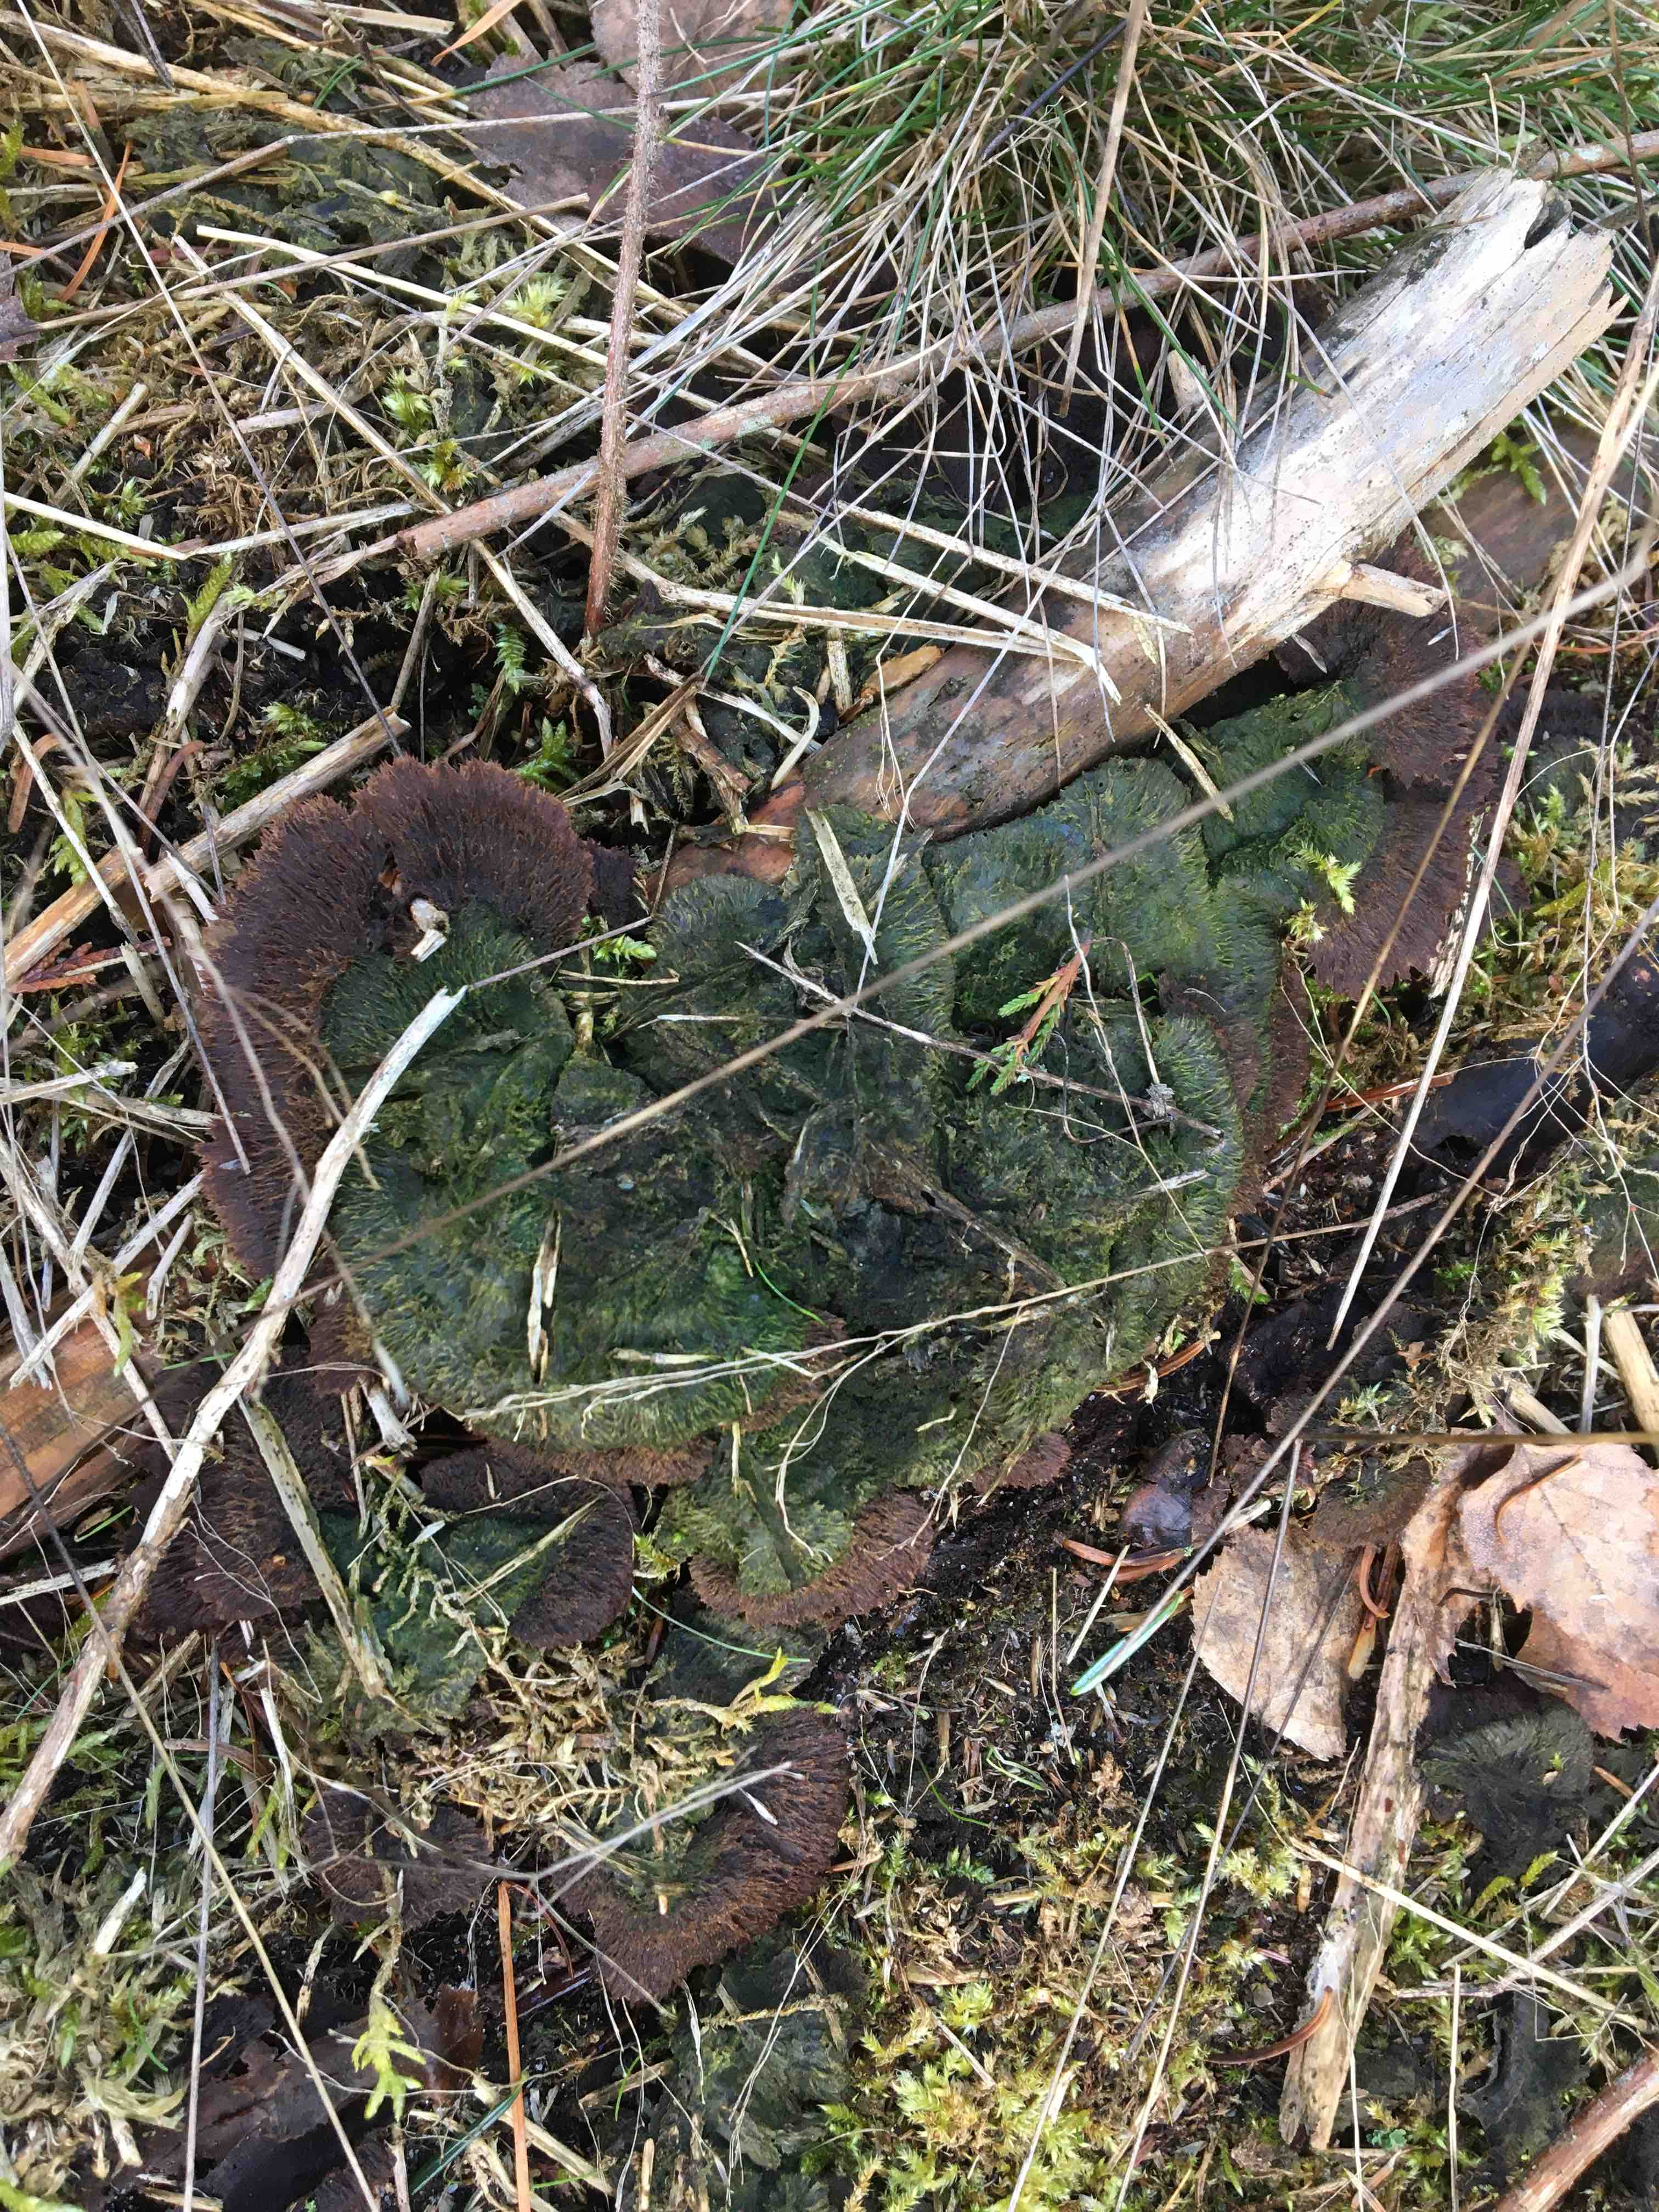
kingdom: Fungi
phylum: Basidiomycota
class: Agaricomycetes
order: Thelephorales
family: Thelephoraceae
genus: Thelephora
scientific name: Thelephora terrestris
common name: fliget frynsesvamp
